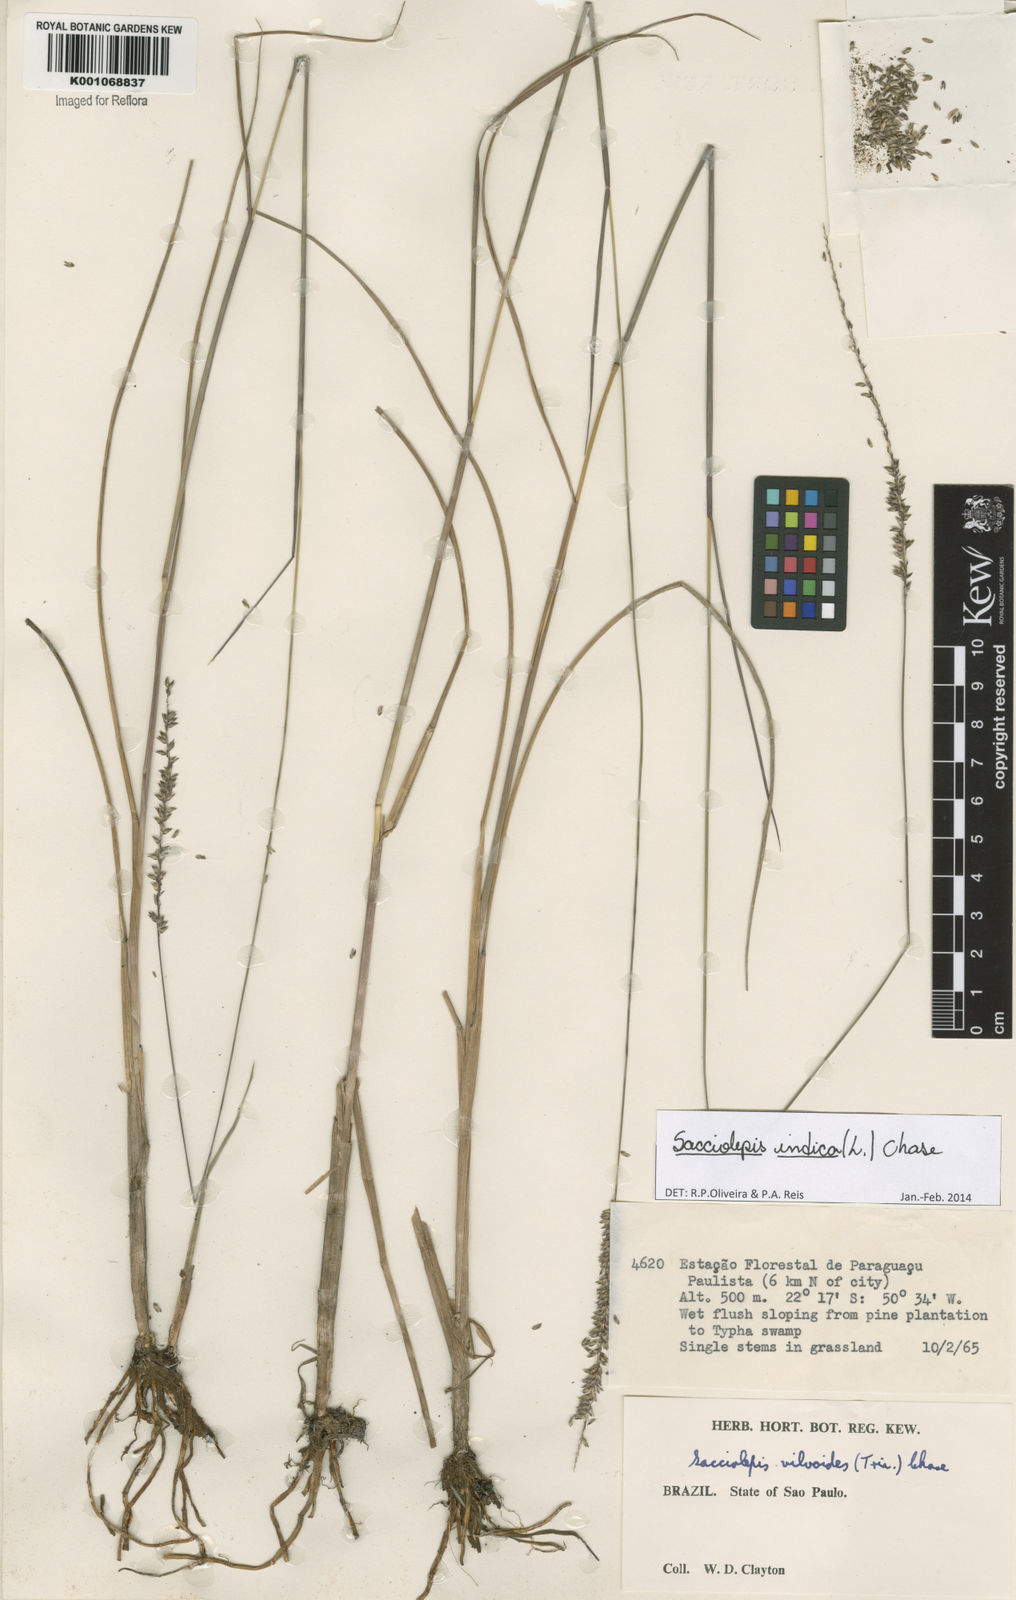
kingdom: Plantae
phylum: Tracheophyta
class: Liliopsida
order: Poales
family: Poaceae
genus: Sacciolepis
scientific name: Sacciolepis indica
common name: Glenwoodgrass
